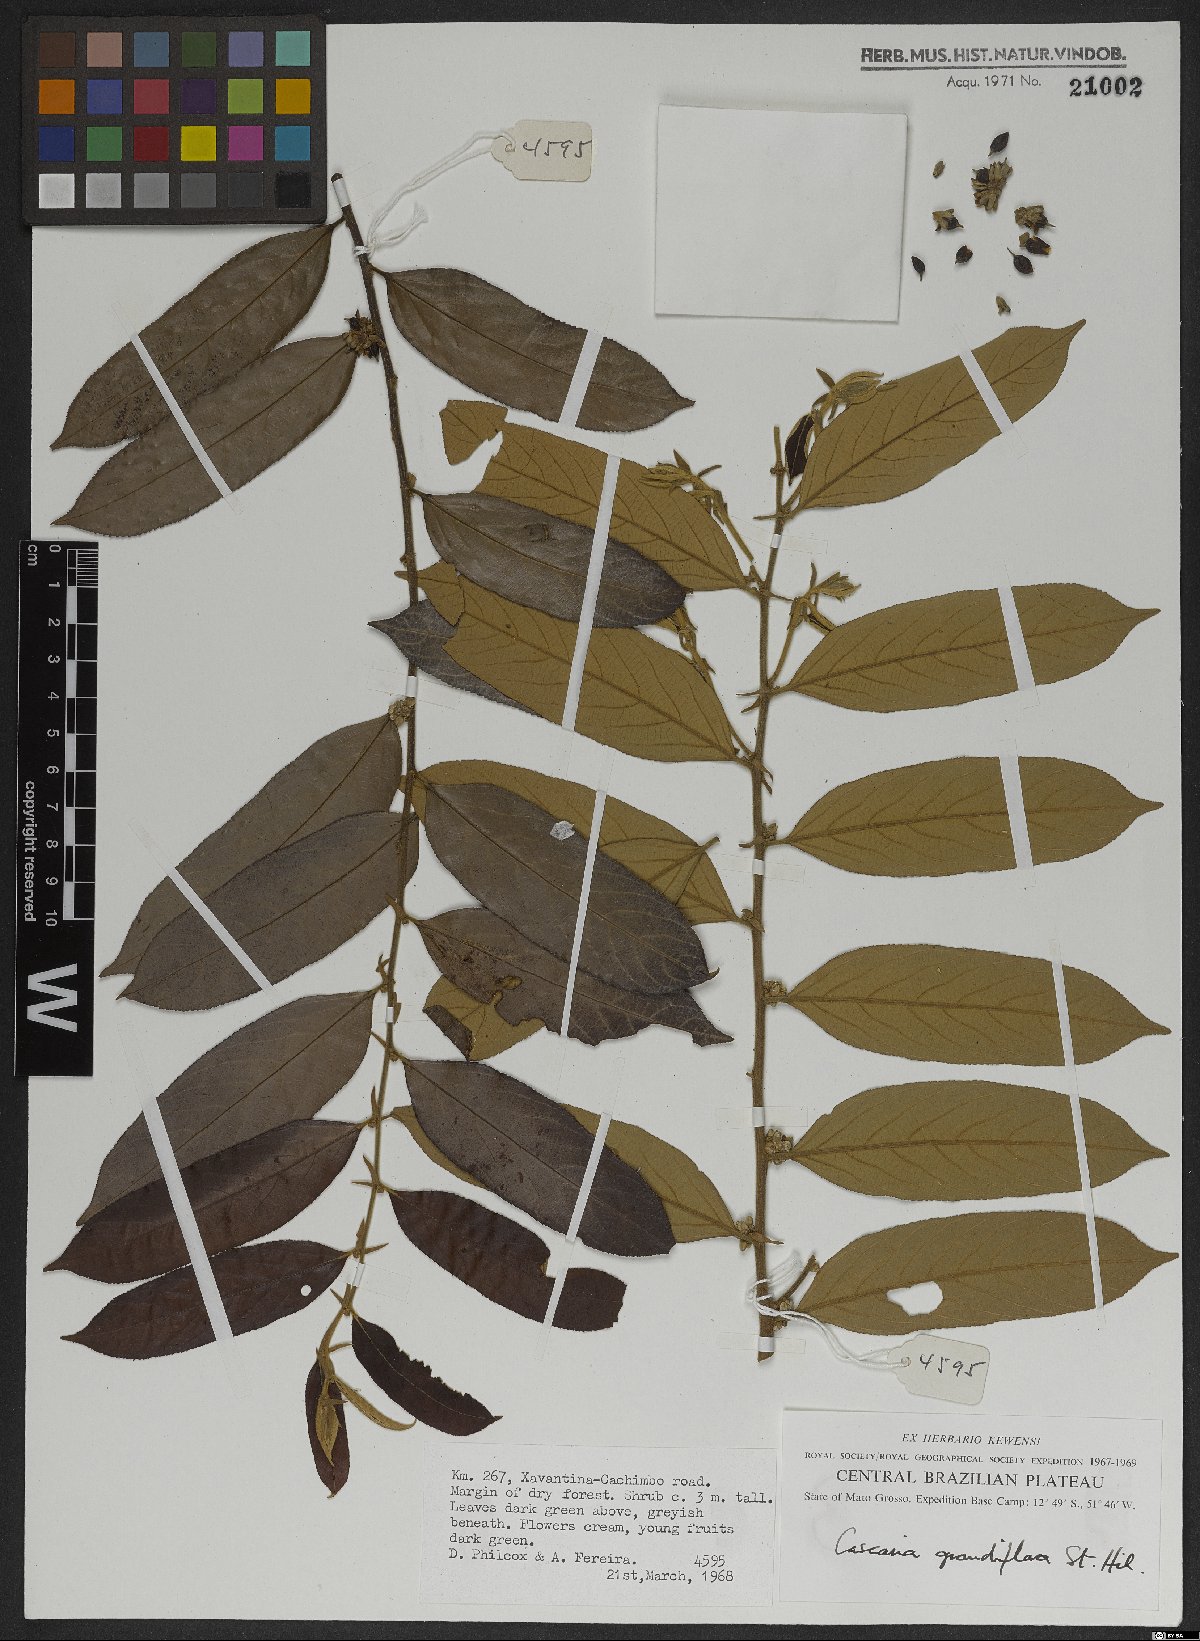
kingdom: Plantae
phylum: Tracheophyta
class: Magnoliopsida
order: Malpighiales
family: Salicaceae
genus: Casearia
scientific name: Casearia grandiflora
